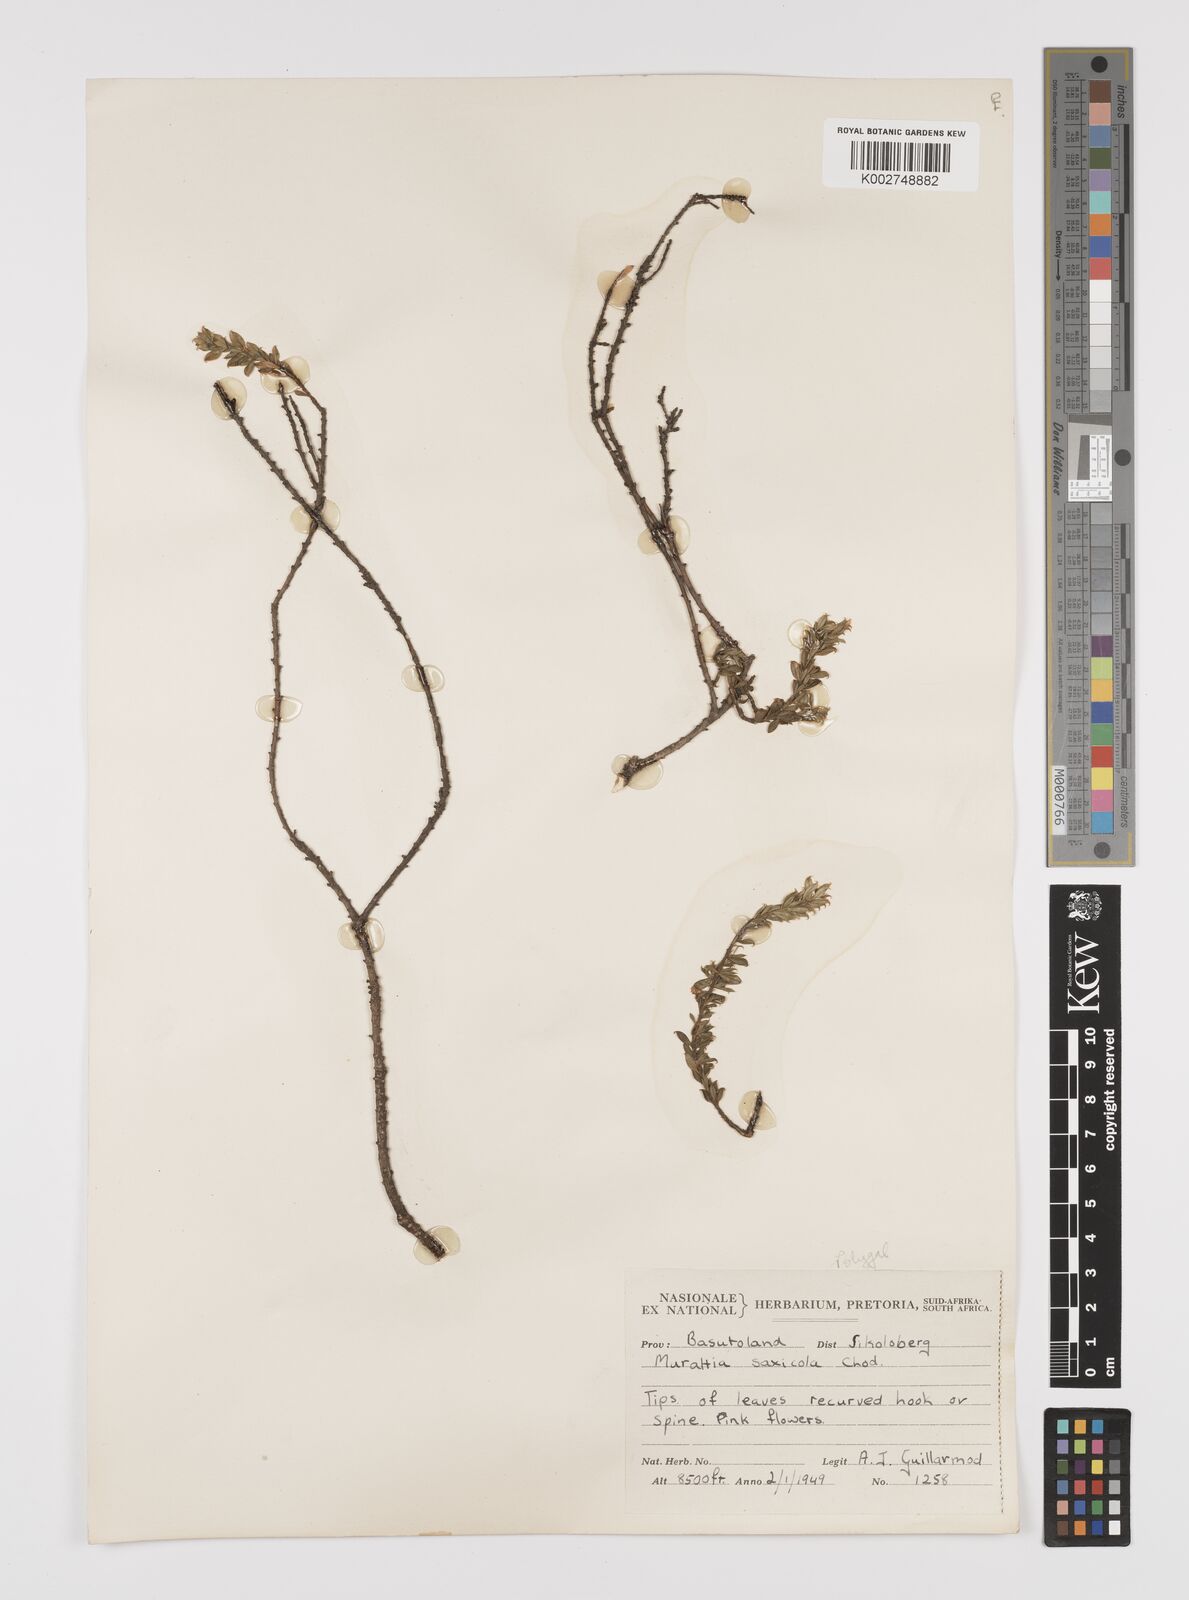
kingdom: Plantae
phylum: Tracheophyta
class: Magnoliopsida
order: Fabales
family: Polygalaceae
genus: Muraltia
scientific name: Muraltia saxicola
